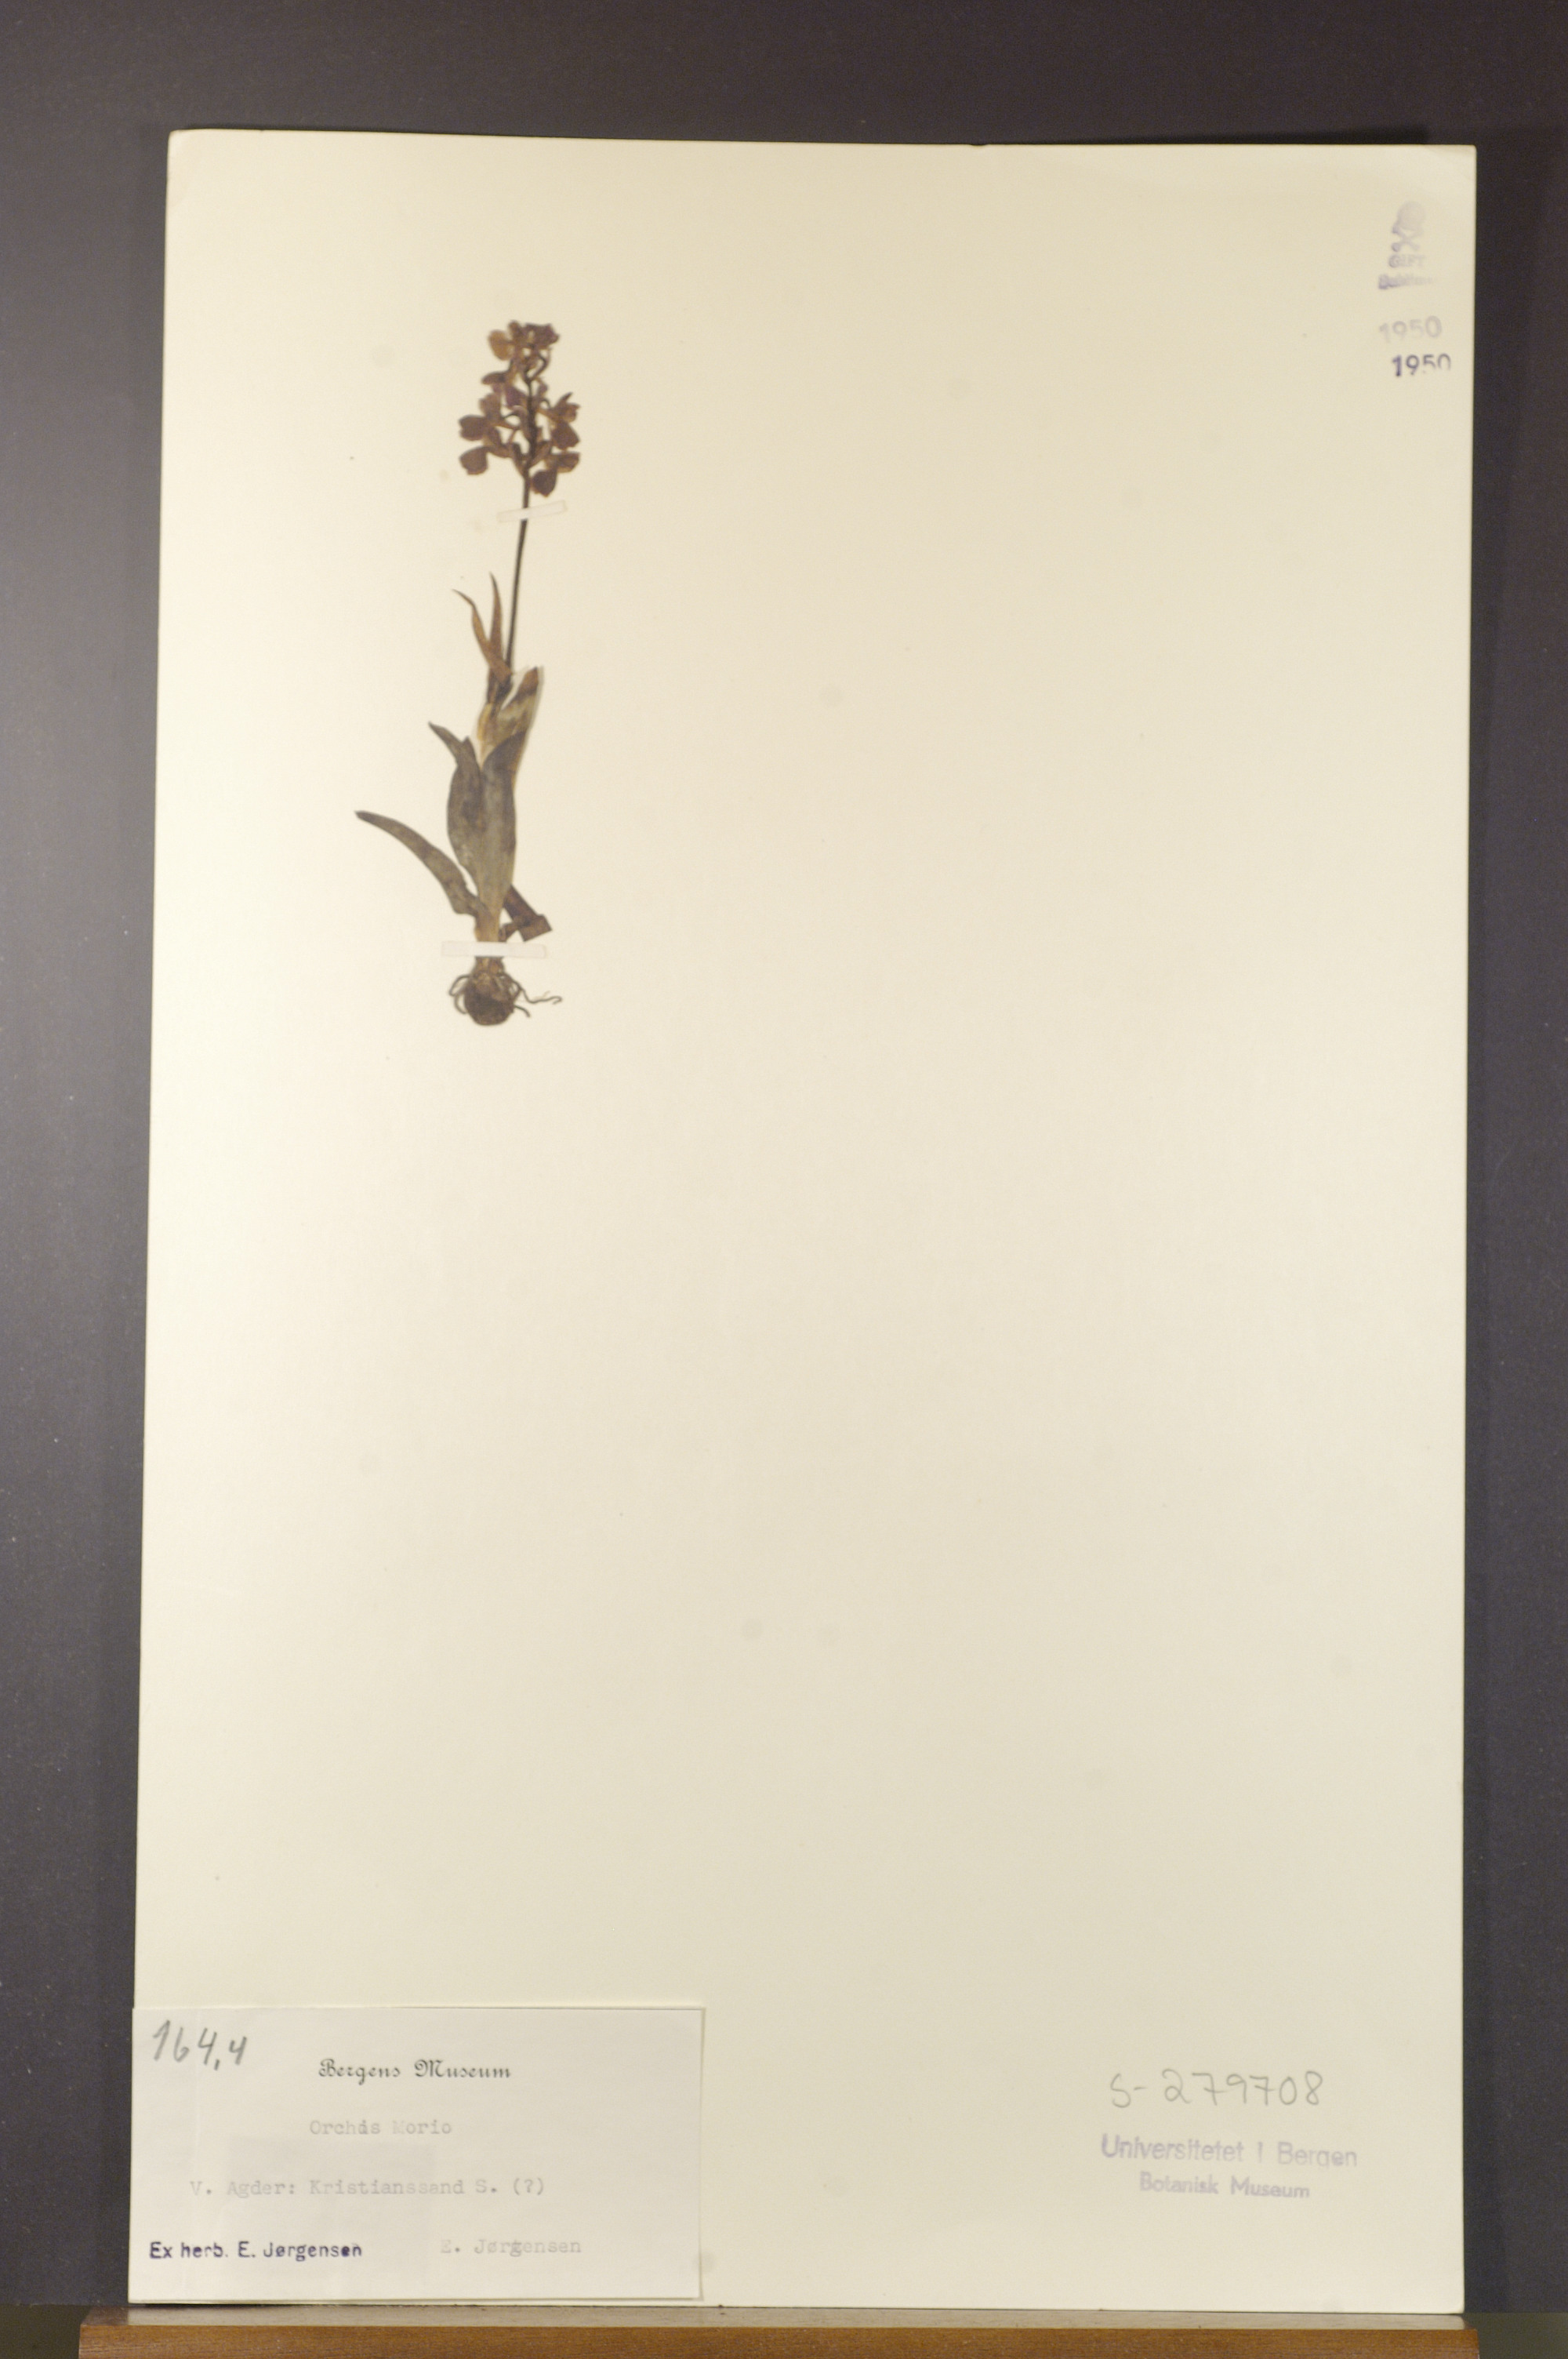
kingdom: Plantae
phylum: Tracheophyta
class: Liliopsida
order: Asparagales
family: Orchidaceae
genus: Anacamptis
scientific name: Anacamptis morio
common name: Green-winged orchid
